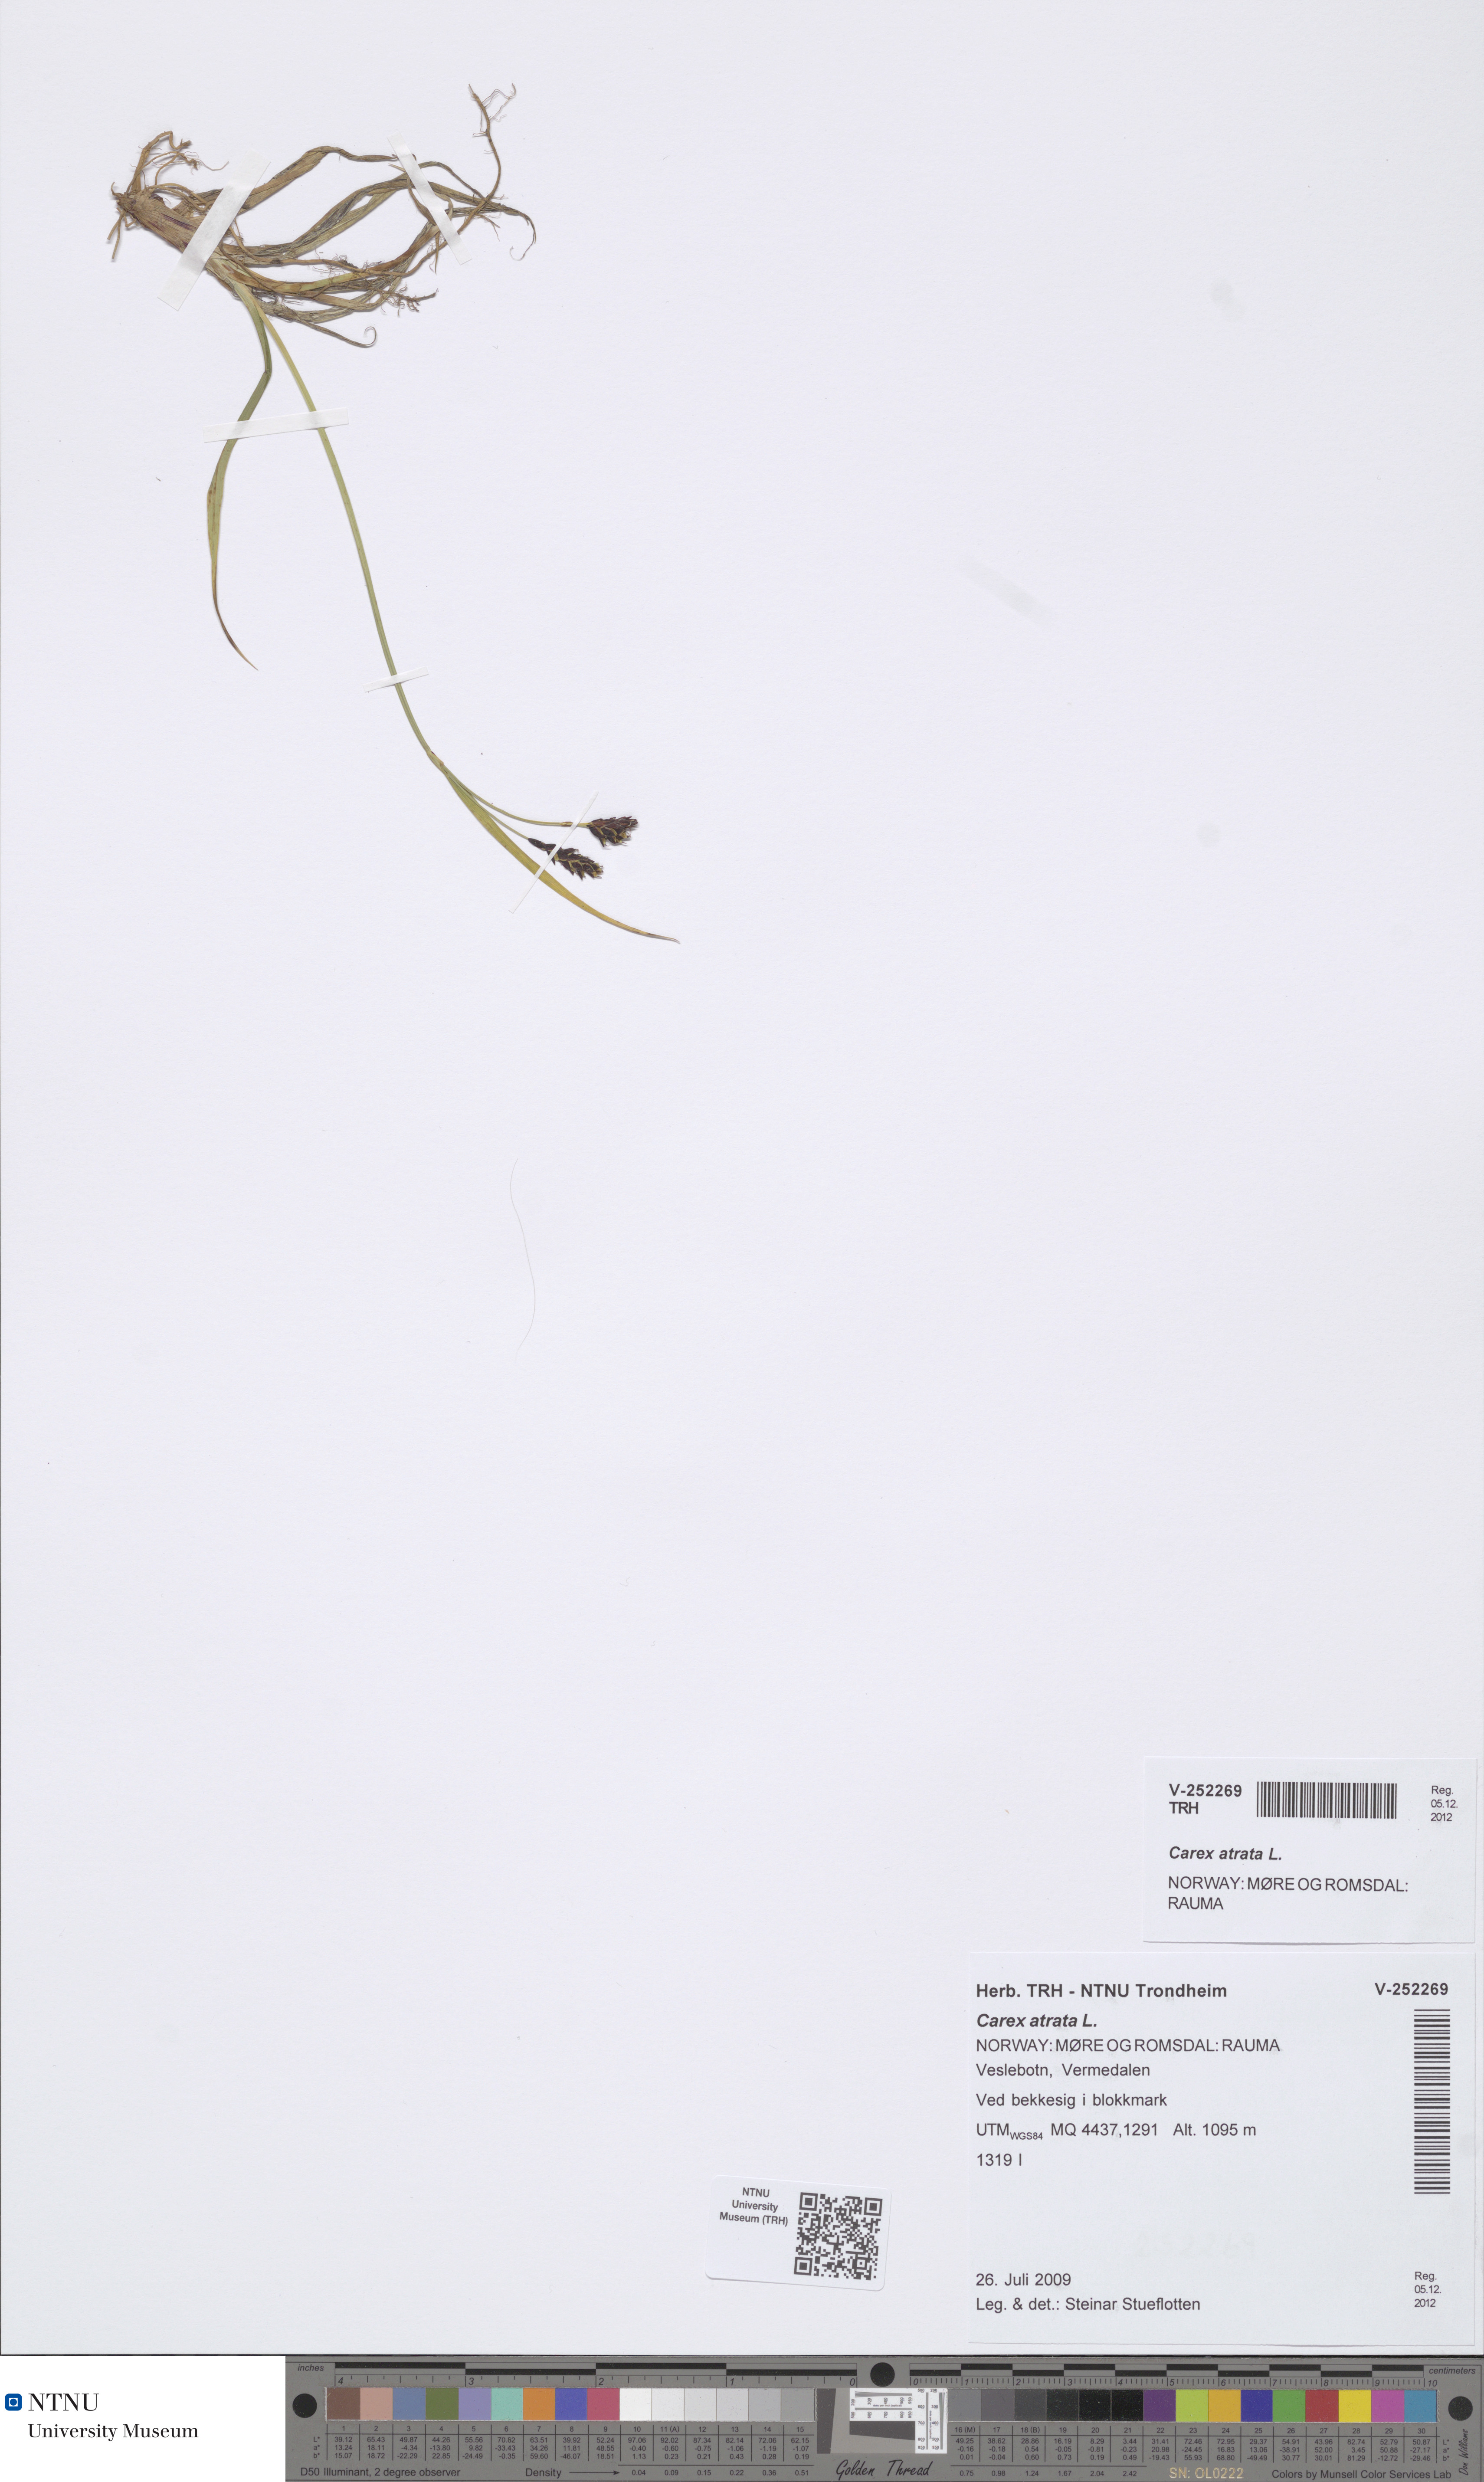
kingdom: Plantae
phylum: Tracheophyta
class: Liliopsida
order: Poales
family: Cyperaceae
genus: Carex
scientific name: Carex atrata
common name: Black alpine sedge
